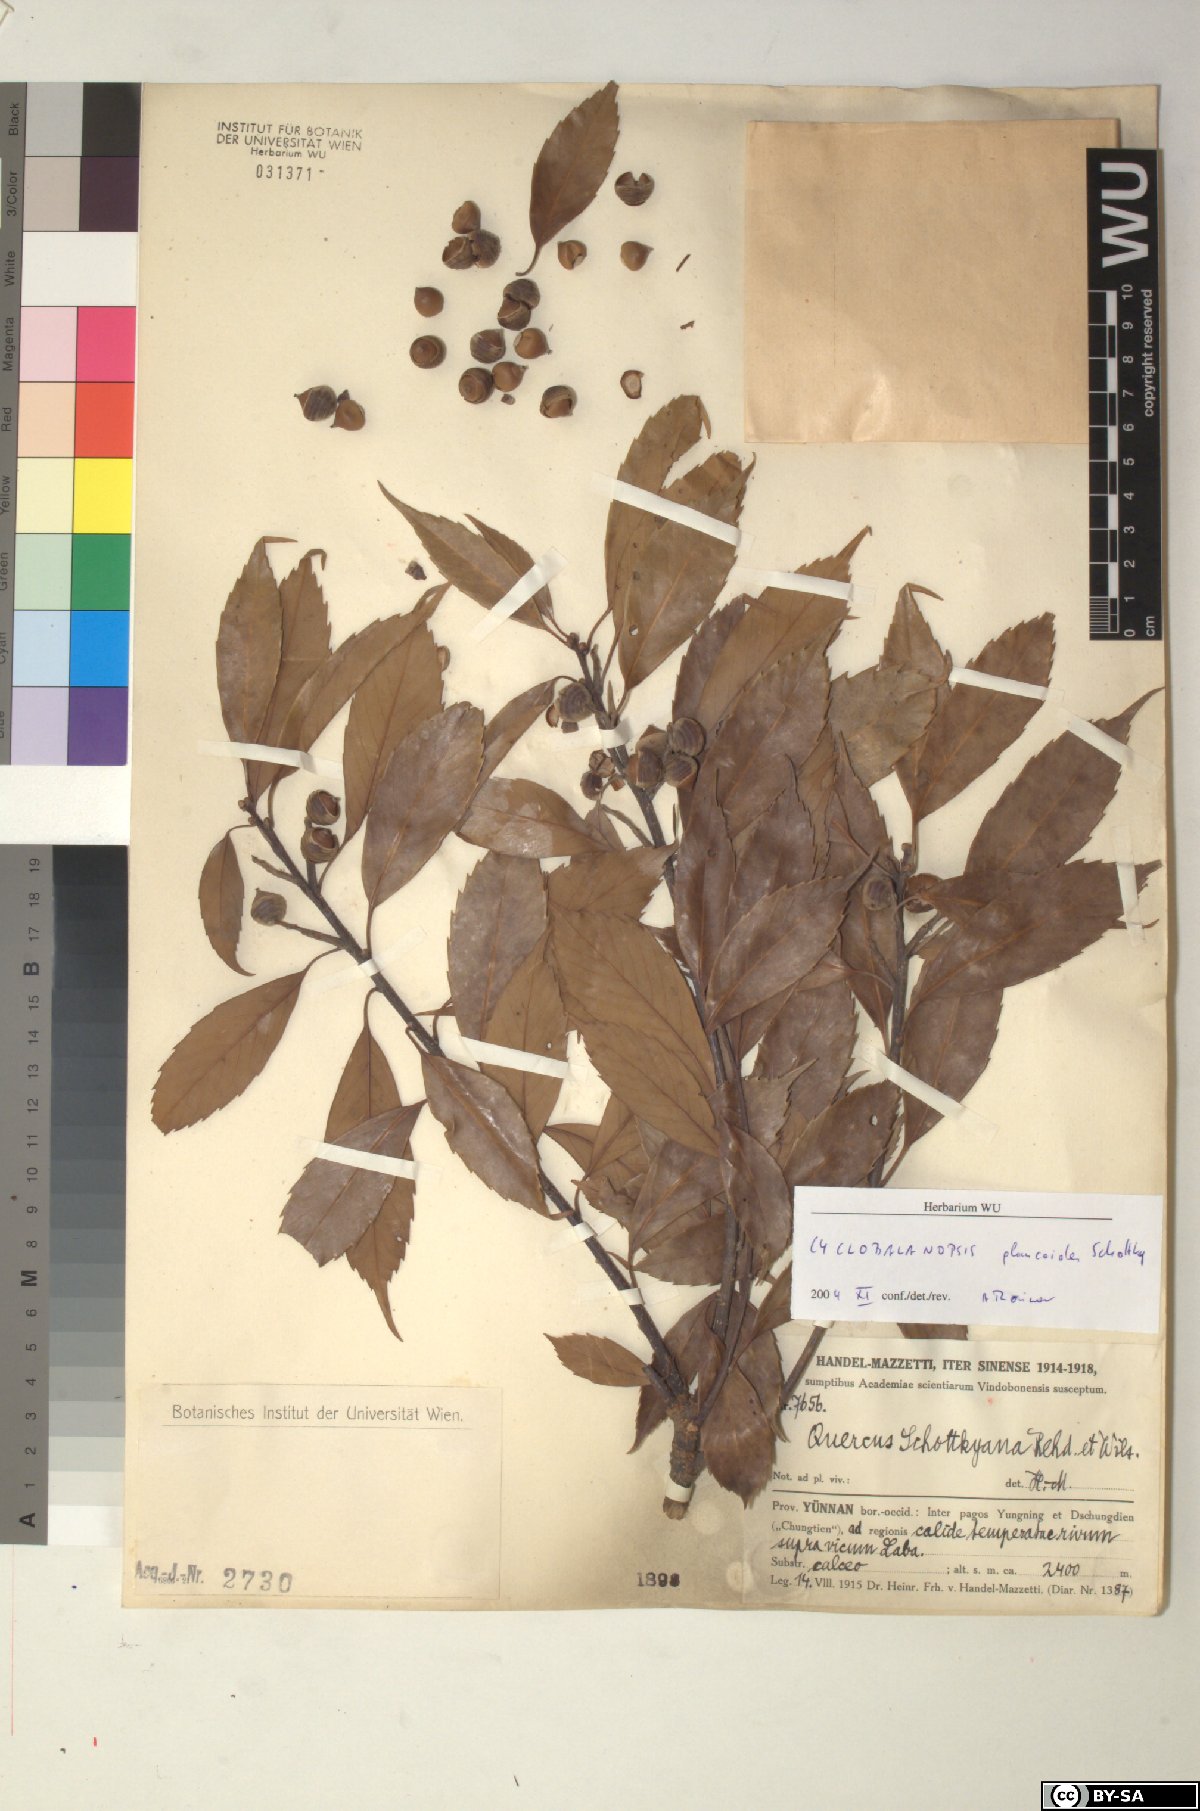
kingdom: Plantae
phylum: Tracheophyta
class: Magnoliopsida
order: Fagales
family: Fagaceae
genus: Quercus
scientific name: Quercus schottkyana
